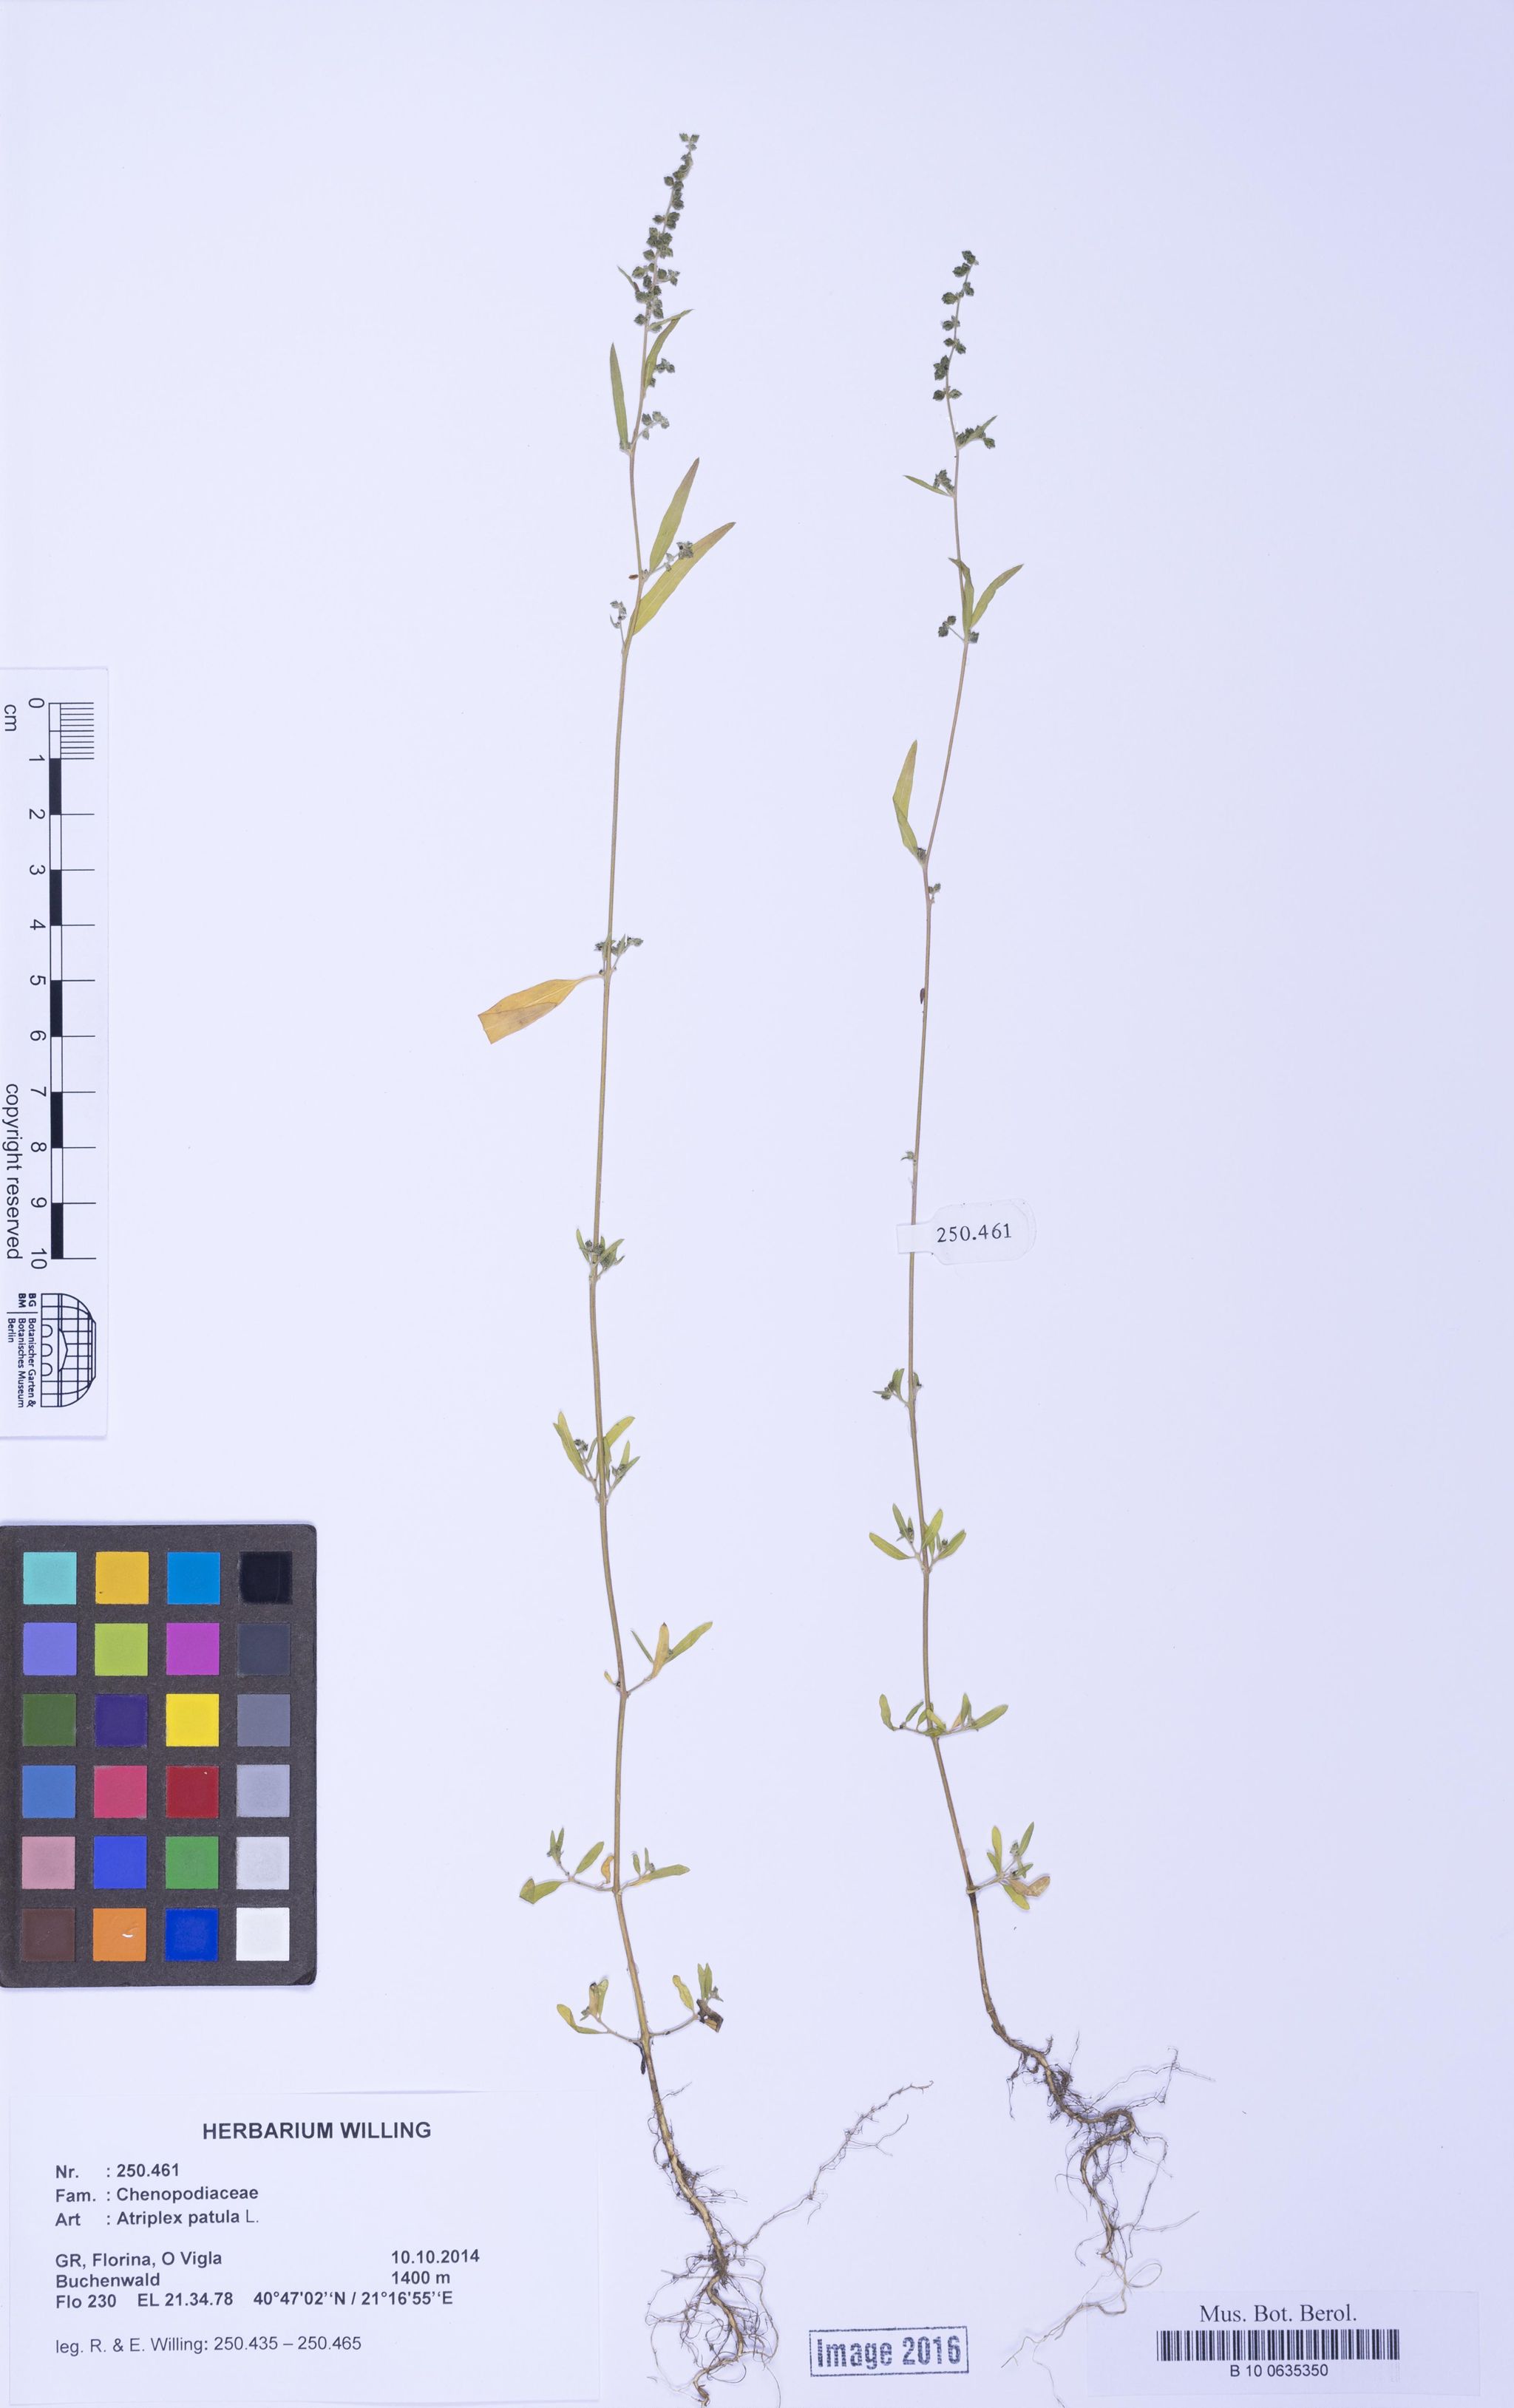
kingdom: Plantae
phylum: Tracheophyta
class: Magnoliopsida
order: Caryophyllales
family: Amaranthaceae
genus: Atriplex
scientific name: Atriplex patula
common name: Common orache
